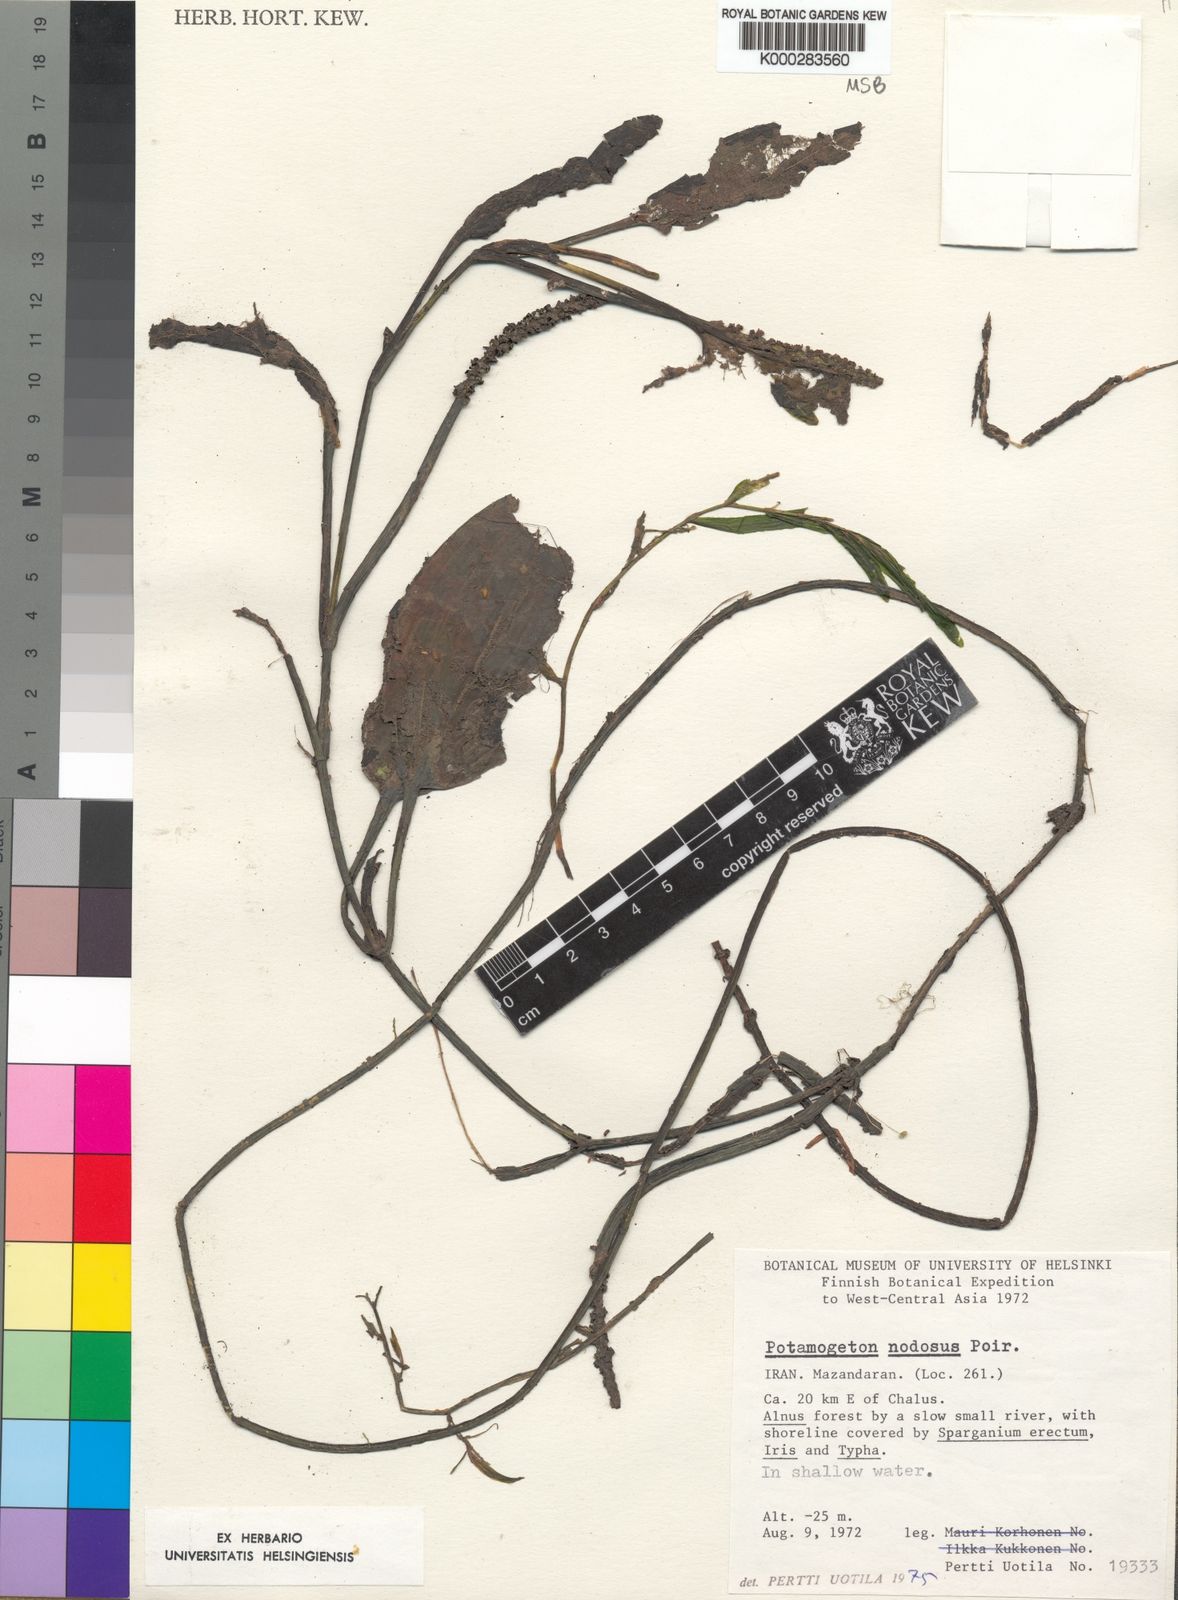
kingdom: Plantae
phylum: Tracheophyta
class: Liliopsida
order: Alismatales
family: Potamogetonaceae
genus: Potamogeton
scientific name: Potamogeton nodosus
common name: Loddon pondweed
